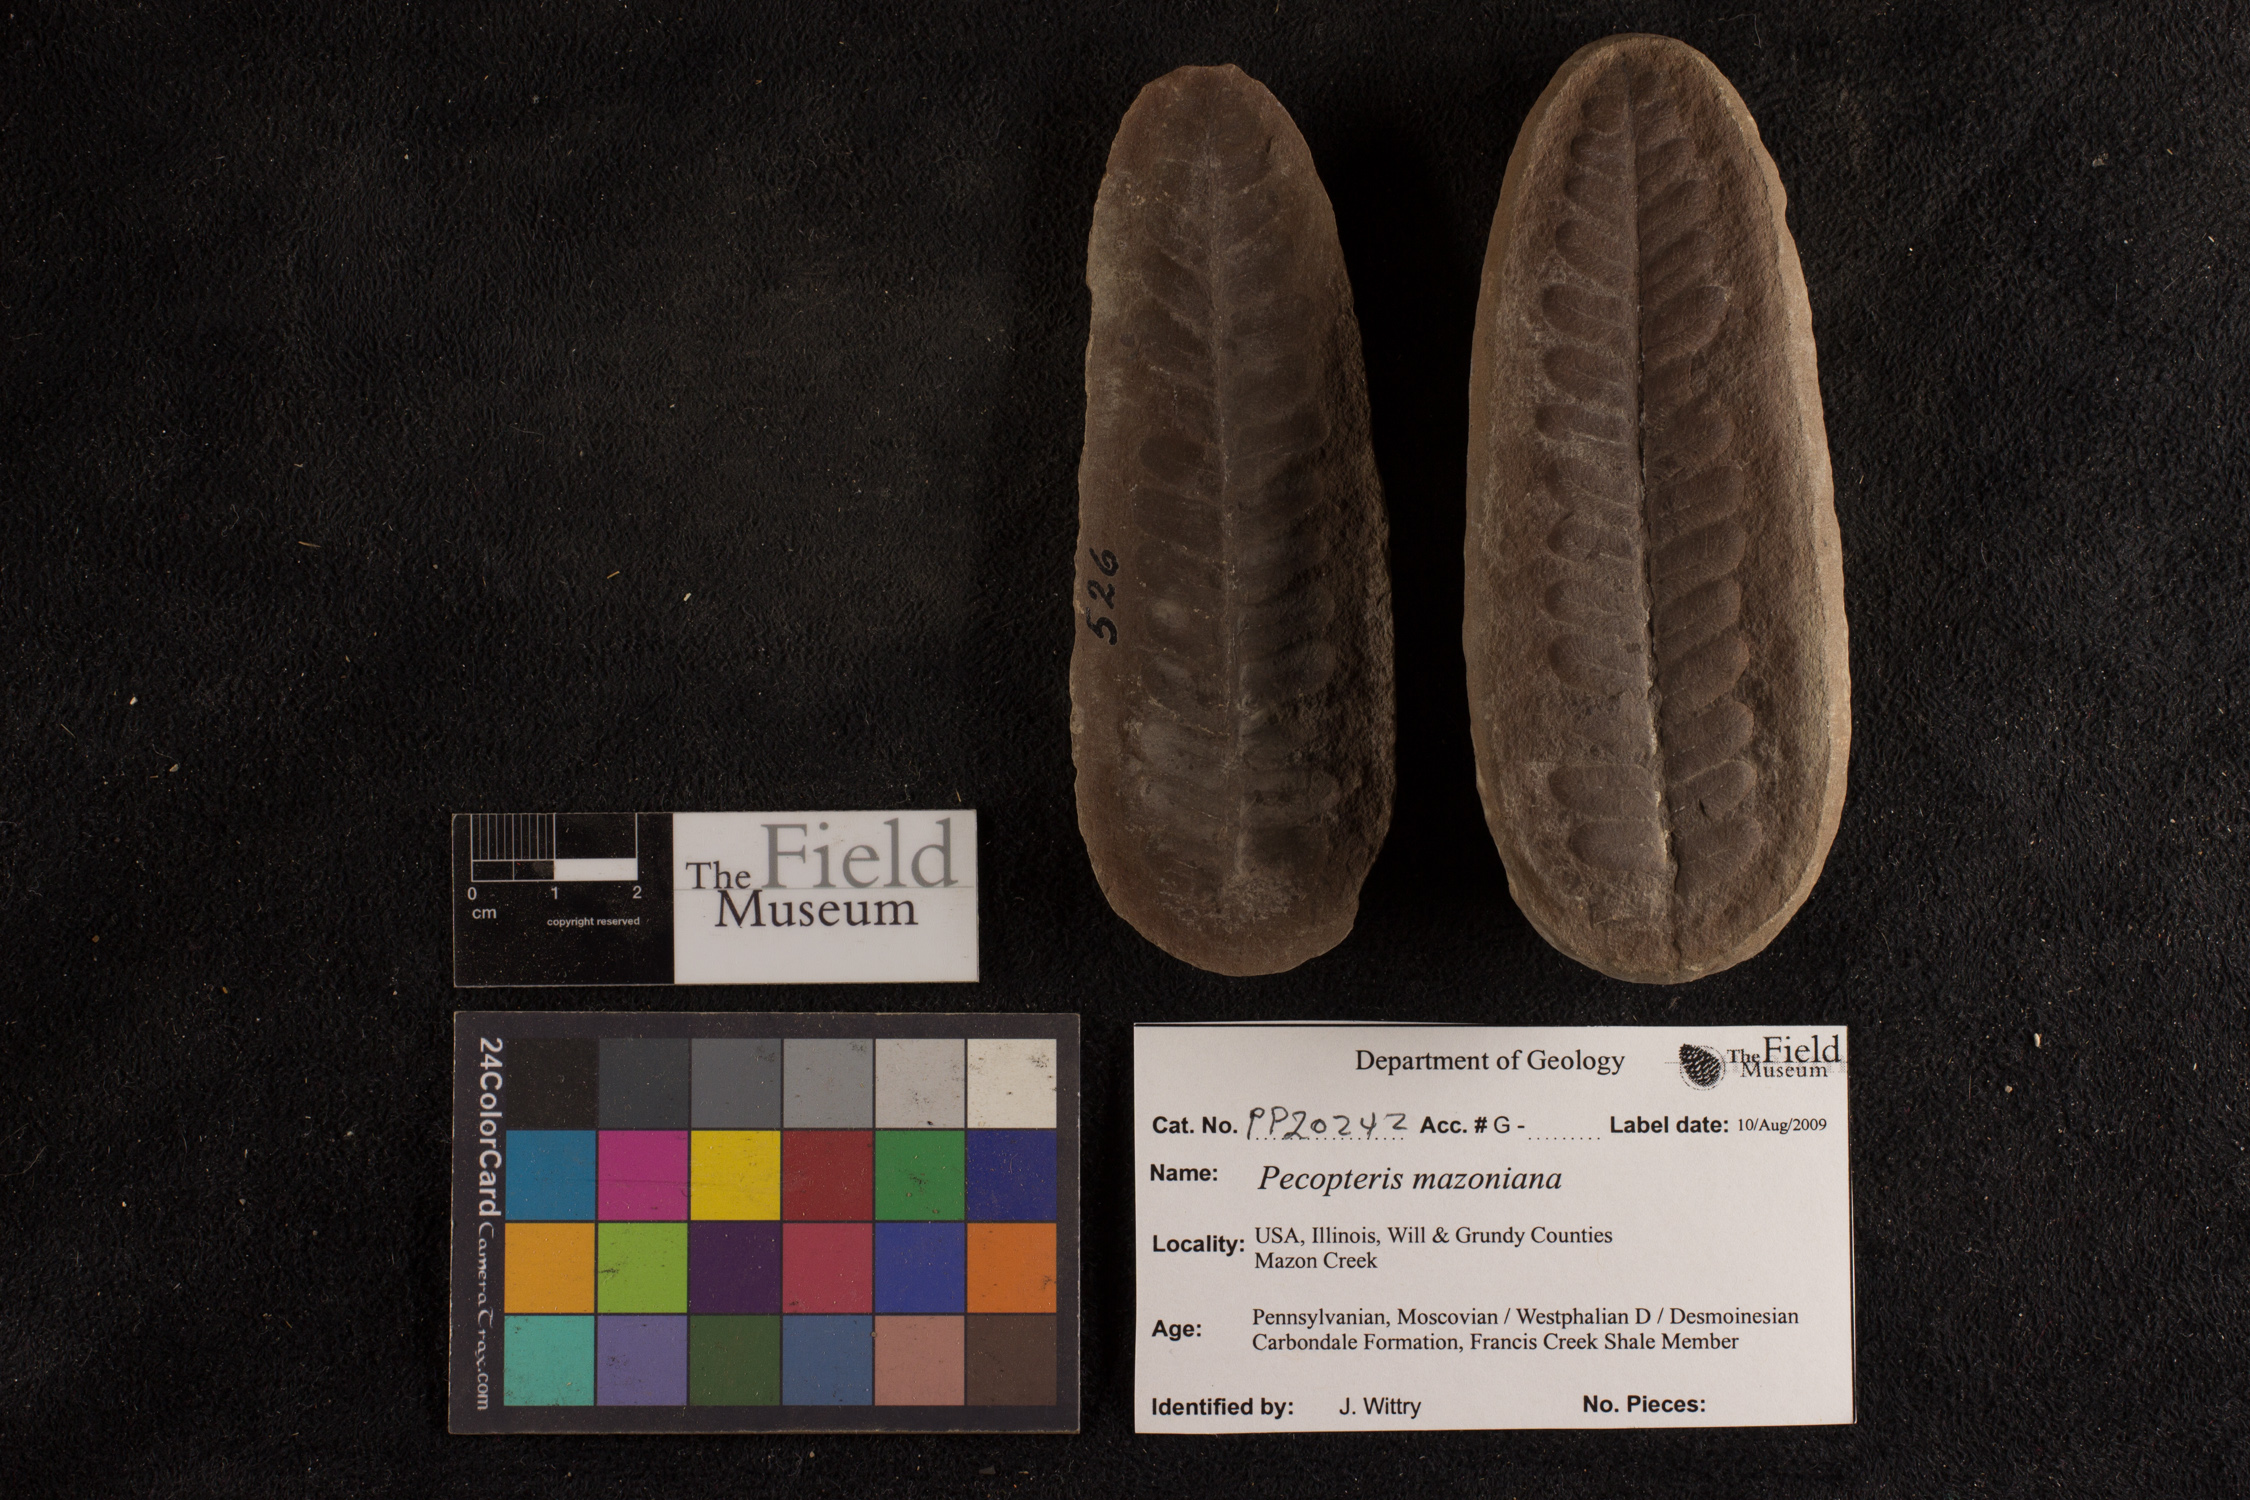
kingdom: Plantae
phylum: Tracheophyta
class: Polypodiopsida
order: Marattiales
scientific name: Marattiales
